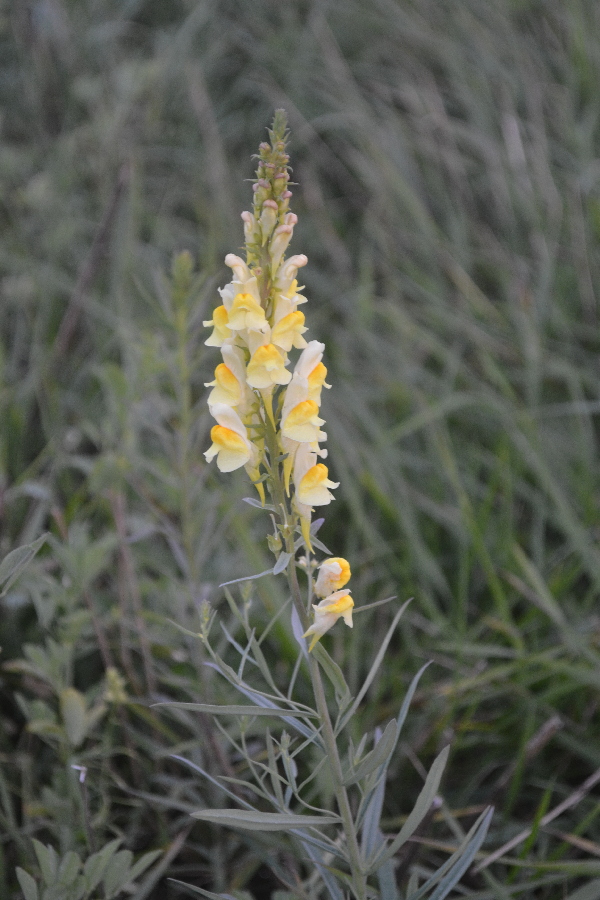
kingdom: Plantae
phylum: Tracheophyta
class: Magnoliopsida
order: Lamiales
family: Plantaginaceae
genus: Linaria
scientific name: Linaria vulgaris
